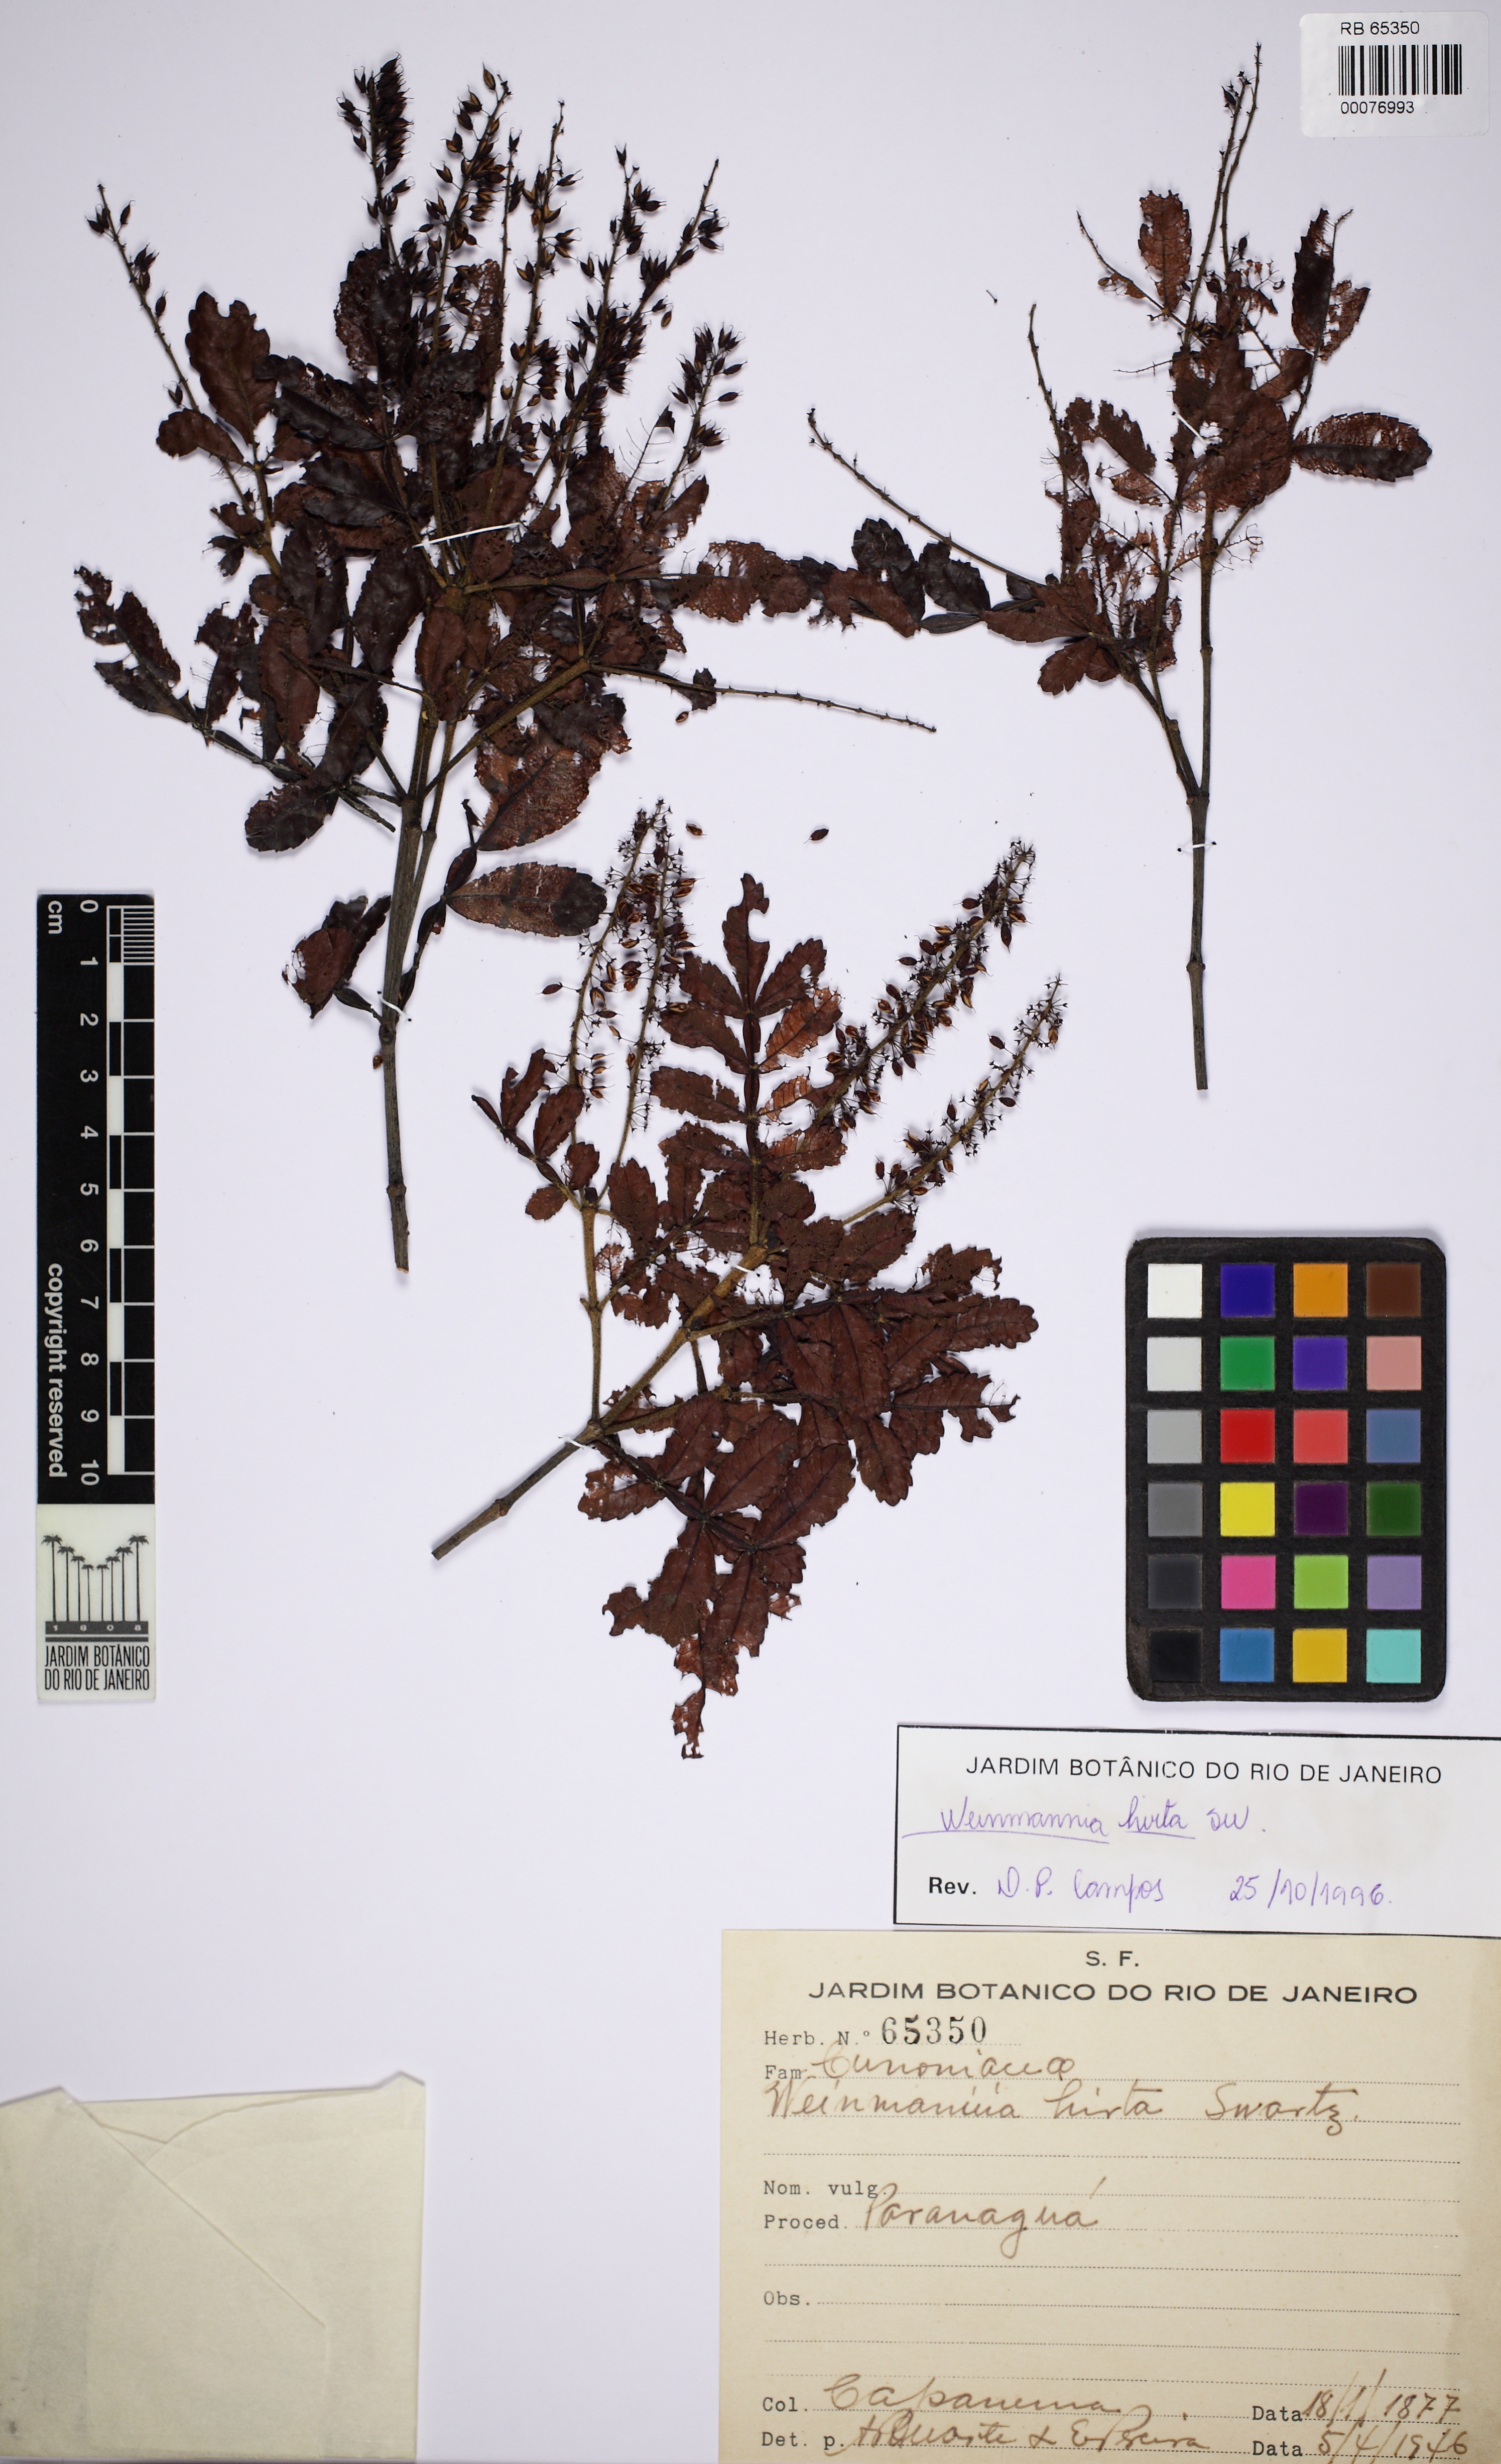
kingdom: Plantae
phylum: Tracheophyta
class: Magnoliopsida
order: Oxalidales
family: Cunoniaceae
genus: Weinmannia
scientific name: Weinmannia pinnata
